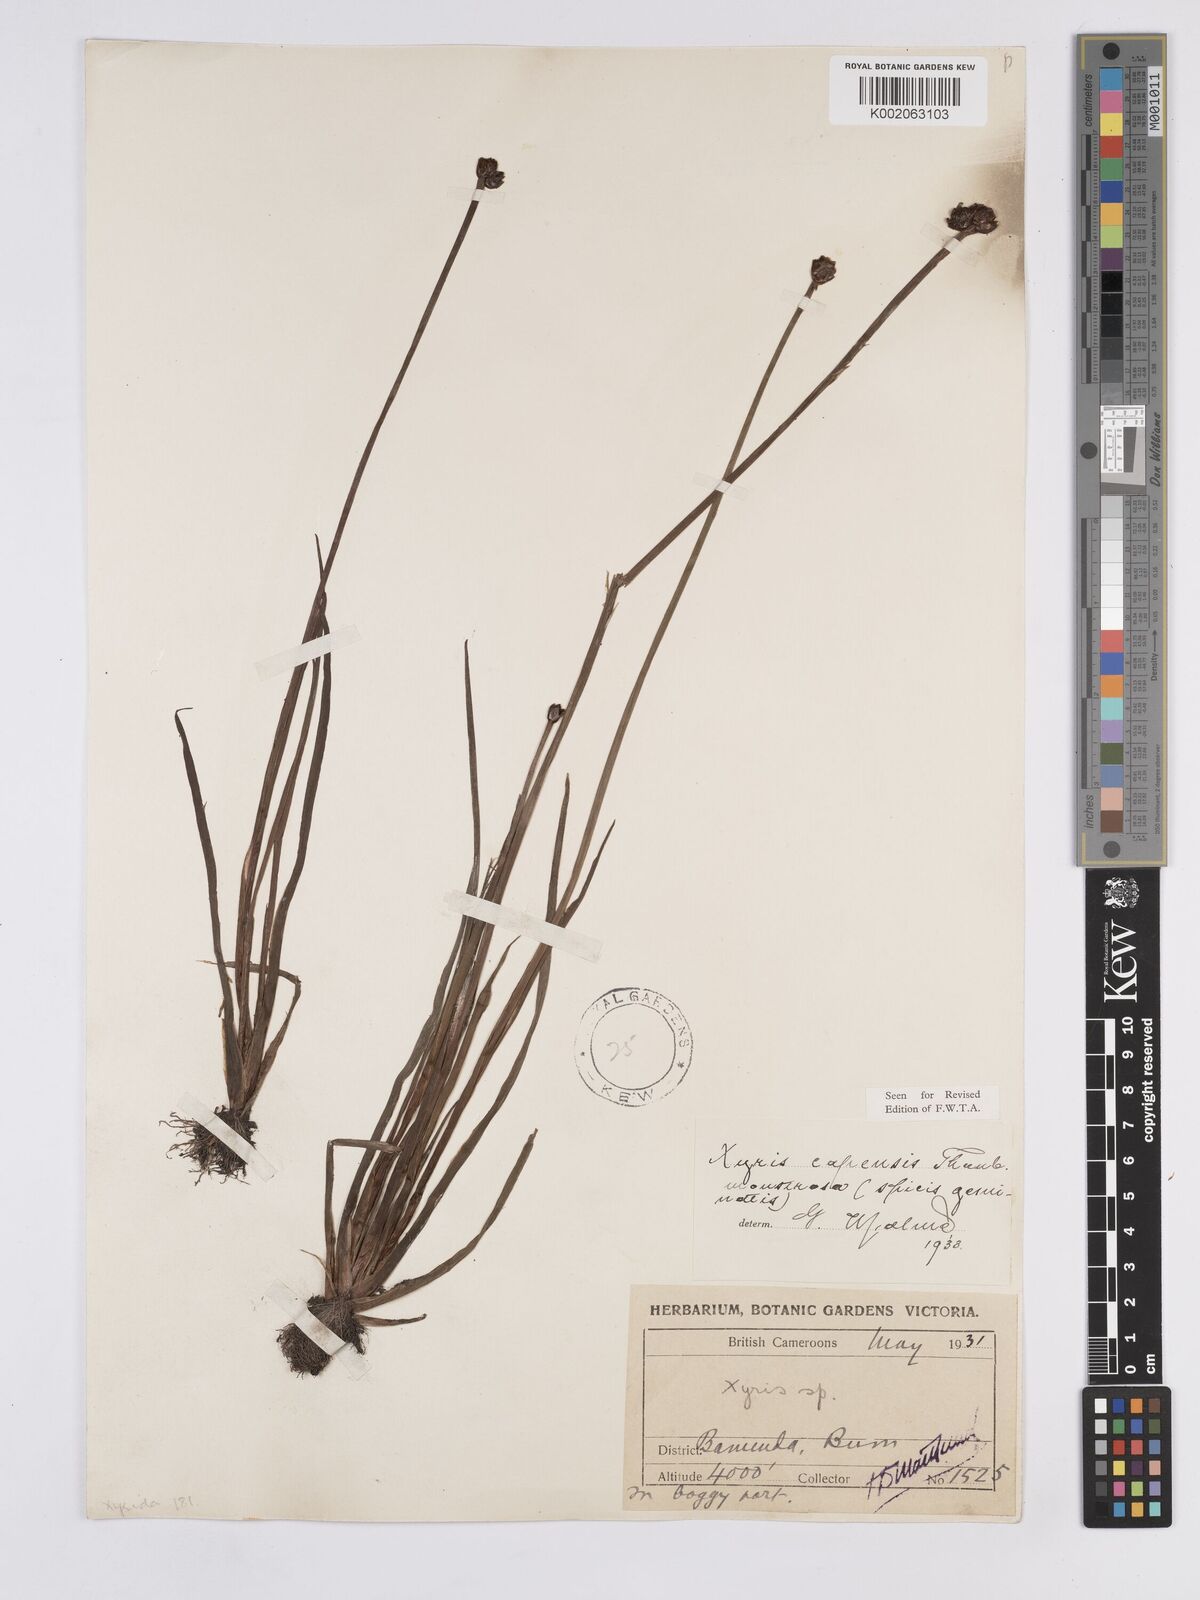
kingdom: Plantae
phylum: Tracheophyta
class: Liliopsida
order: Poales
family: Xyridaceae
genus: Xyris
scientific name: Xyris capensis
